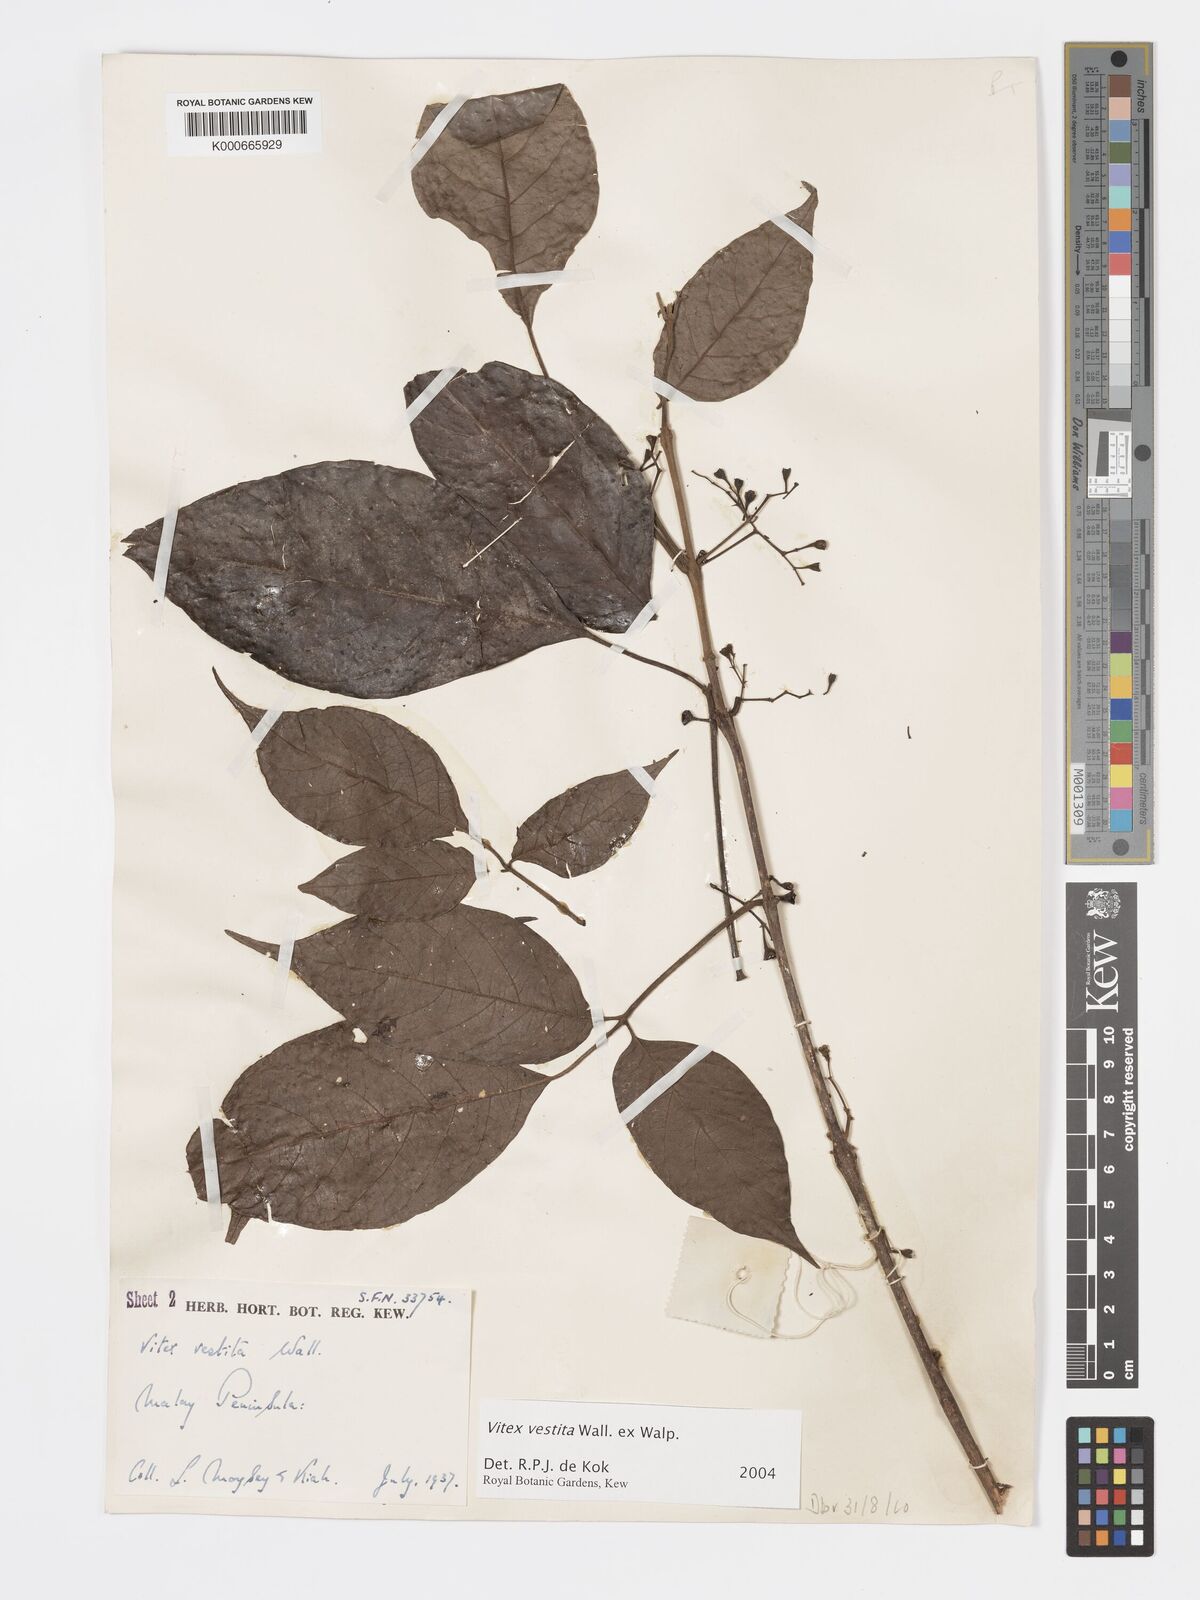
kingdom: Plantae
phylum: Tracheophyta
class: Magnoliopsida
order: Lamiales
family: Lamiaceae
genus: Vitex
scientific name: Vitex vestita
